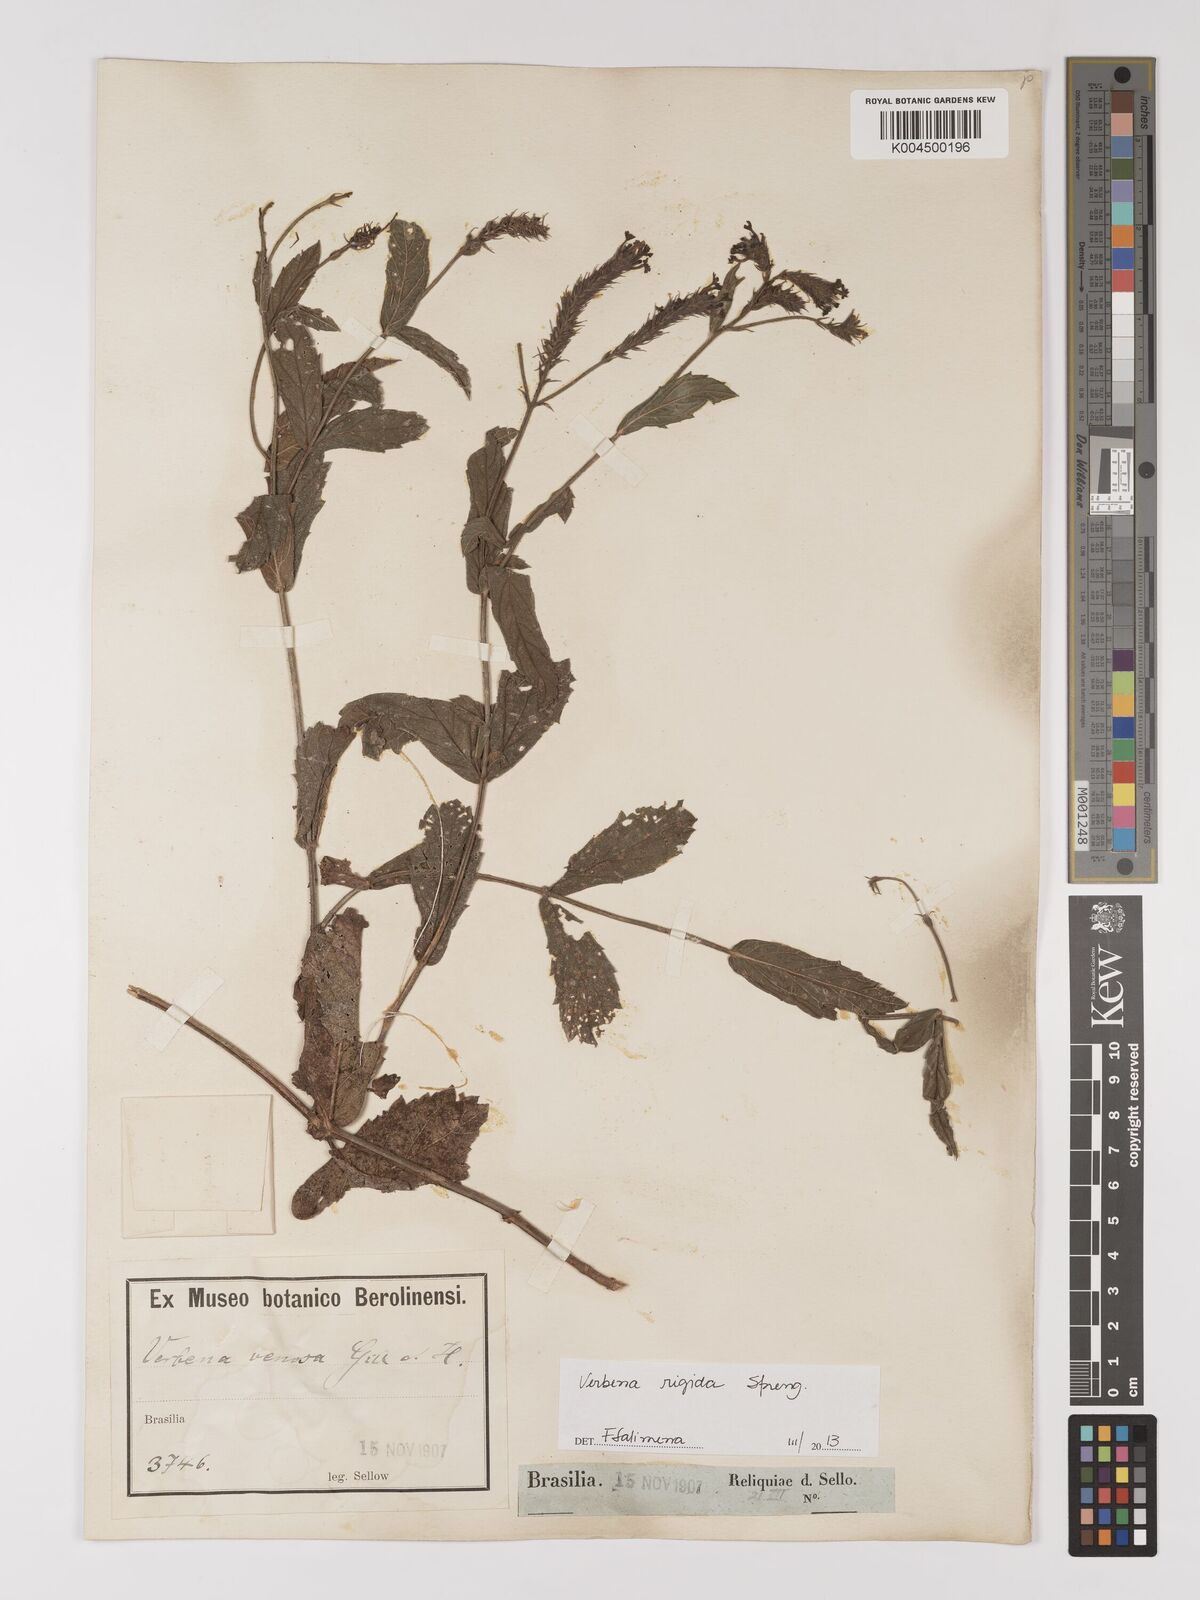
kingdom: Plantae
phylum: Tracheophyta
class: Magnoliopsida
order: Lamiales
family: Verbenaceae
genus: Verbena
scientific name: Verbena rigida
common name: Slender vervain
